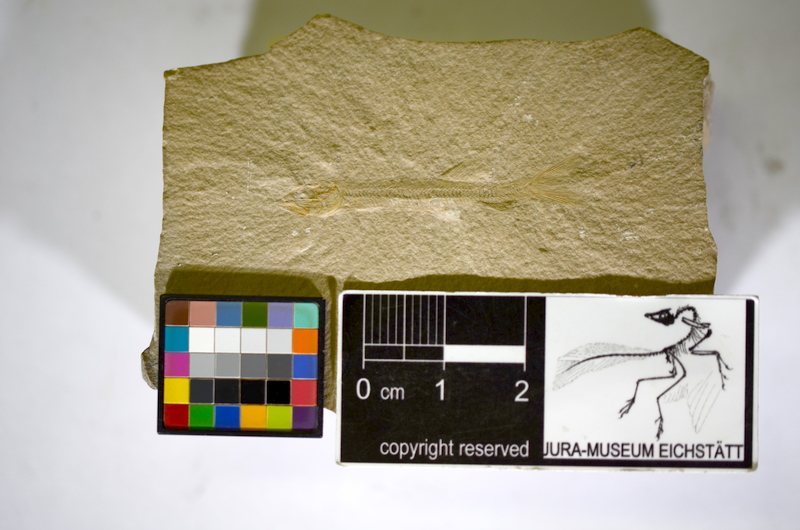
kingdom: Animalia
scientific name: Animalia
